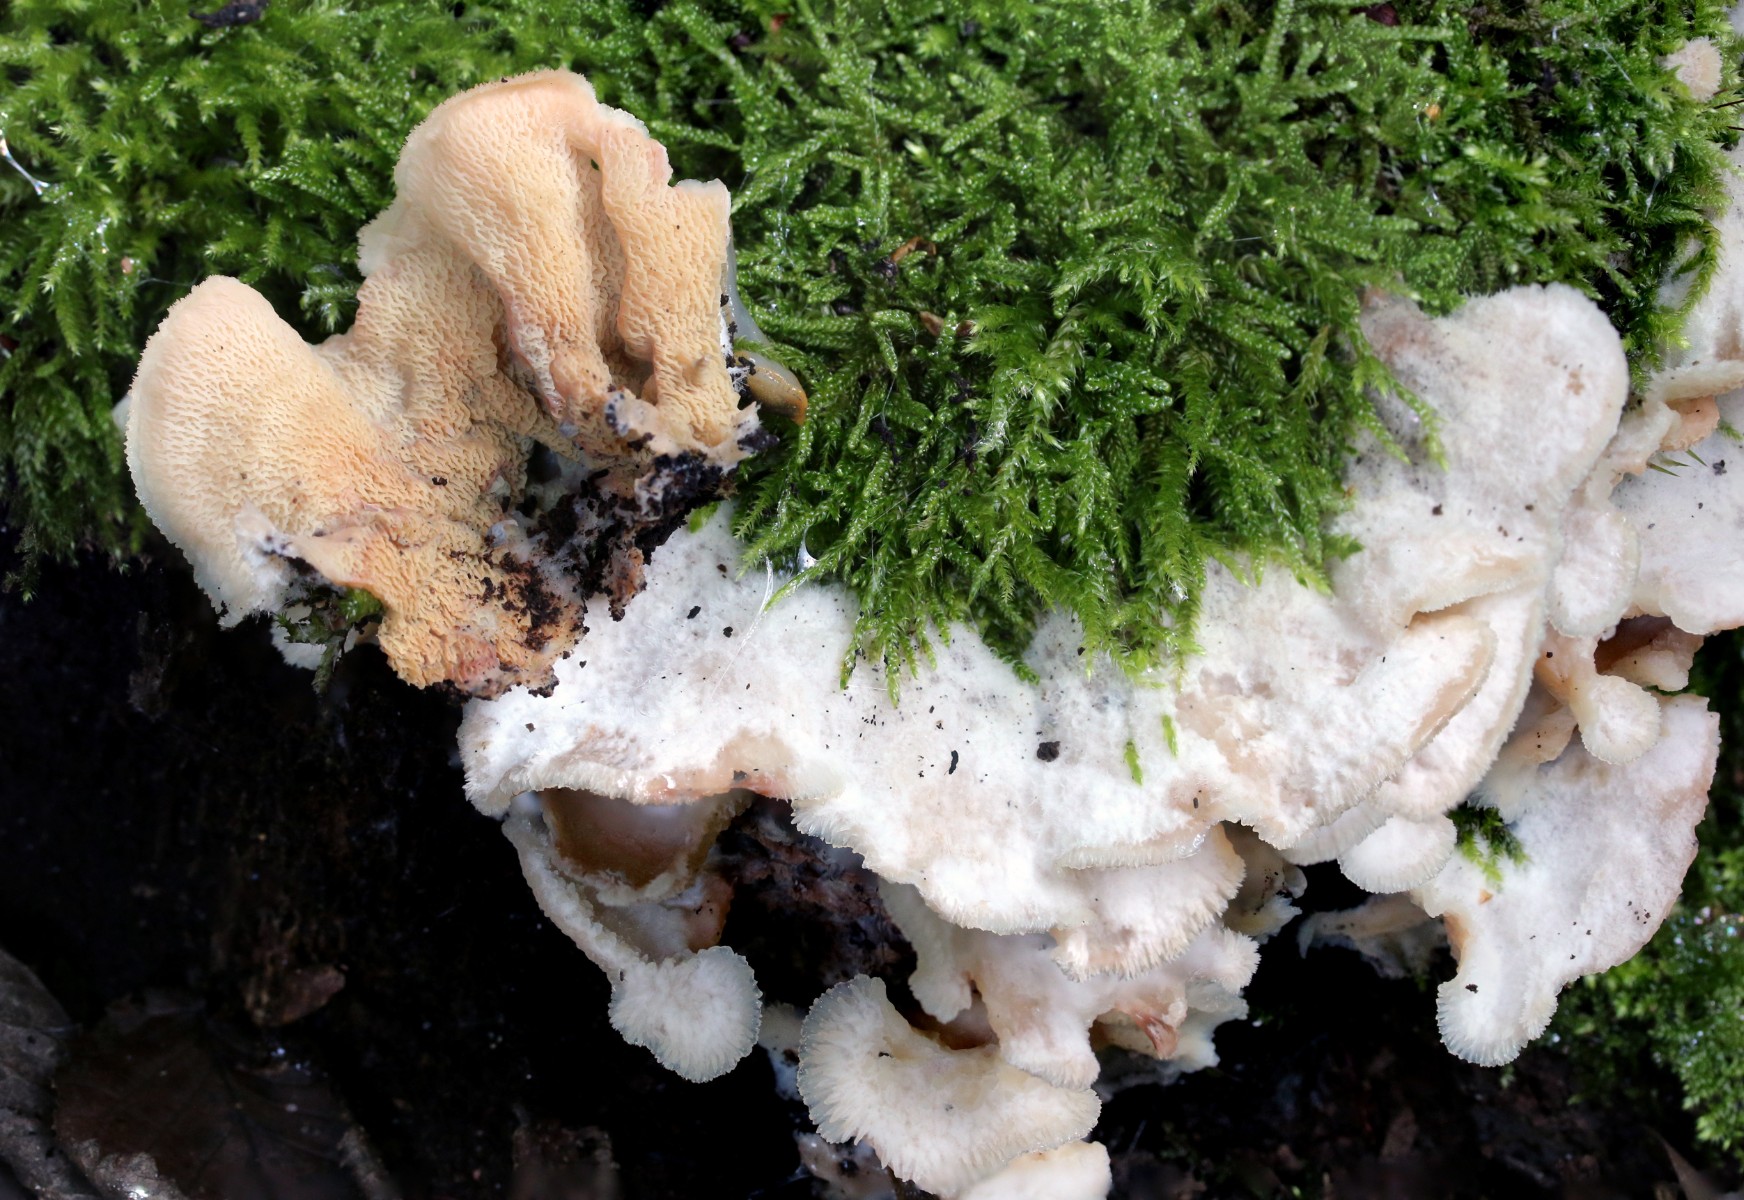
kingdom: Fungi
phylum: Basidiomycota
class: Agaricomycetes
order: Polyporales
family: Meruliaceae
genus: Phlebia
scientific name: Phlebia tremellosa
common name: bævrende åresvamp
